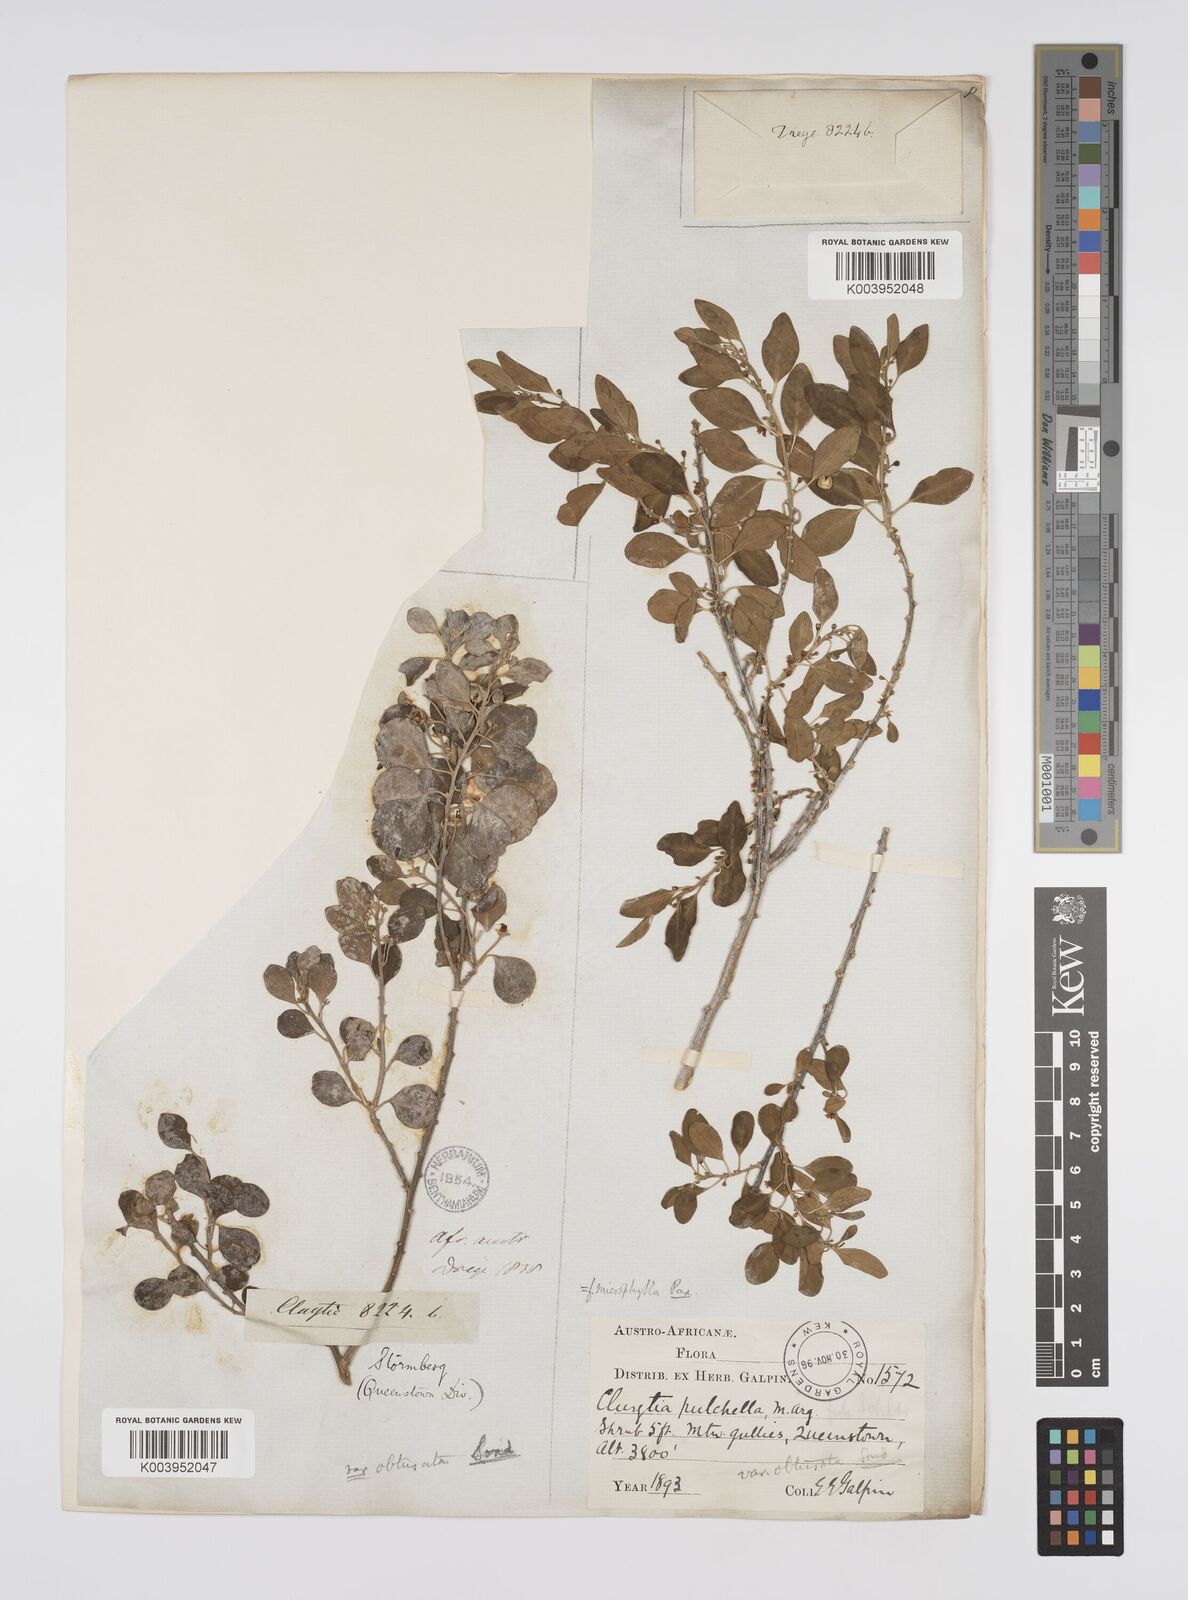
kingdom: Plantae
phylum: Tracheophyta
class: Magnoliopsida
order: Malpighiales
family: Peraceae
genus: Clutia
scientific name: Clutia pulchella
